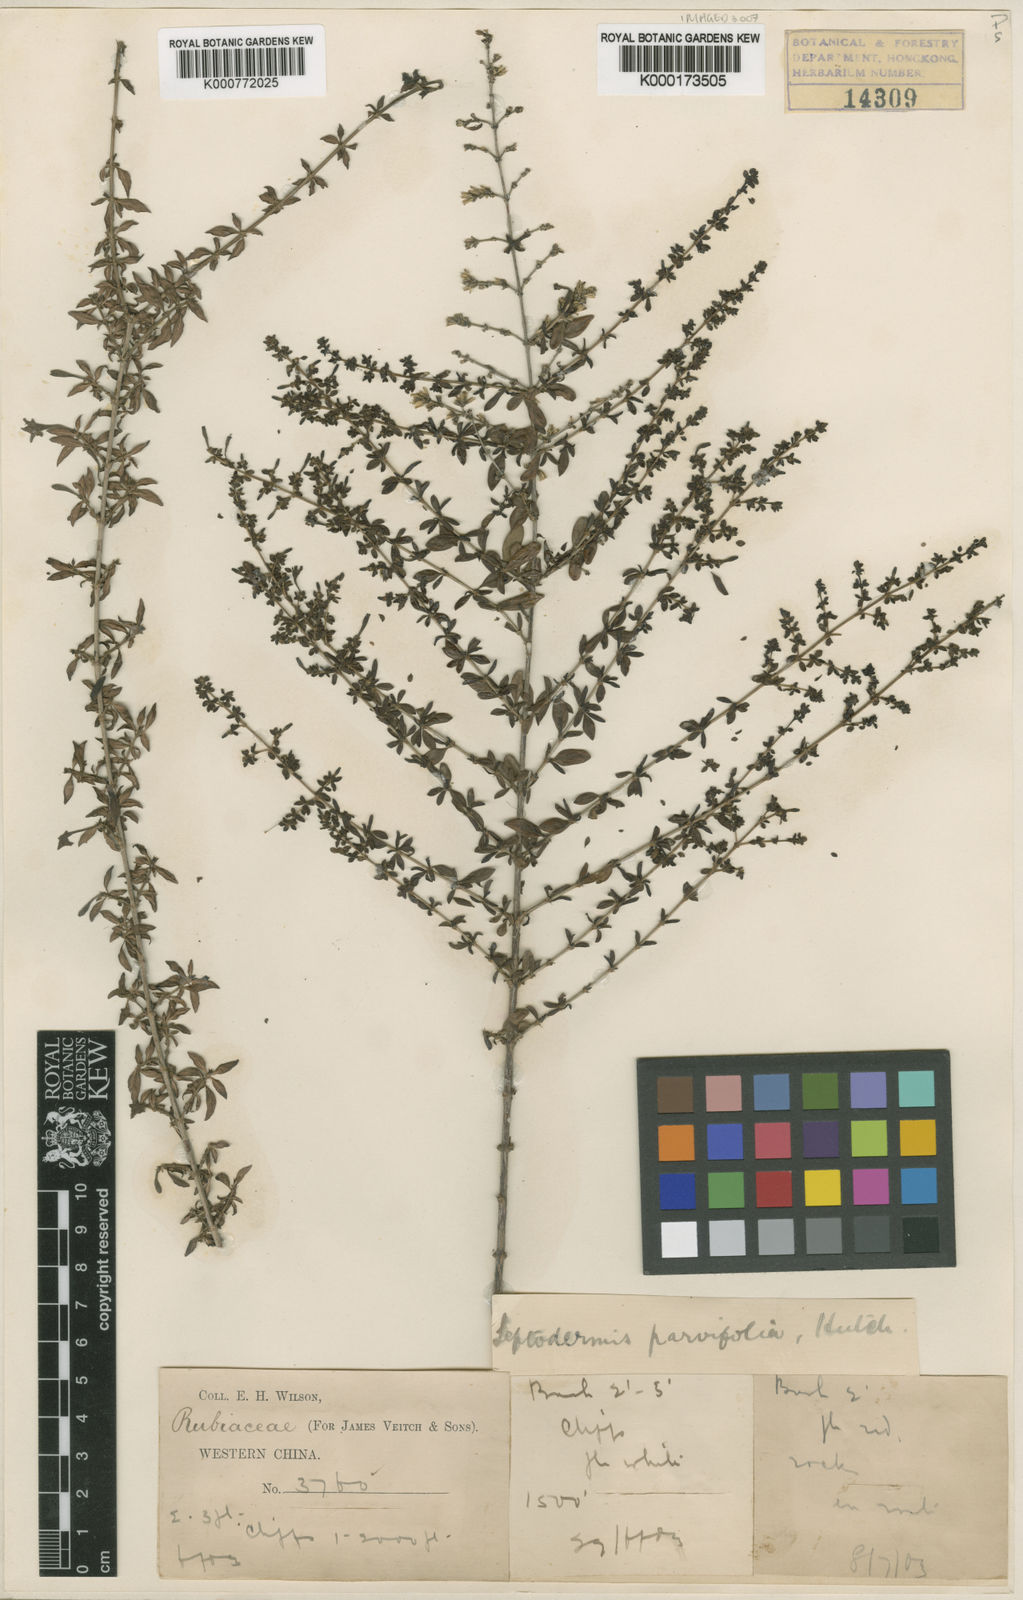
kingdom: Plantae
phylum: Tracheophyta
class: Magnoliopsida
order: Gentianales
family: Rubiaceae
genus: Leptodermis
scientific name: Leptodermis purdomii
